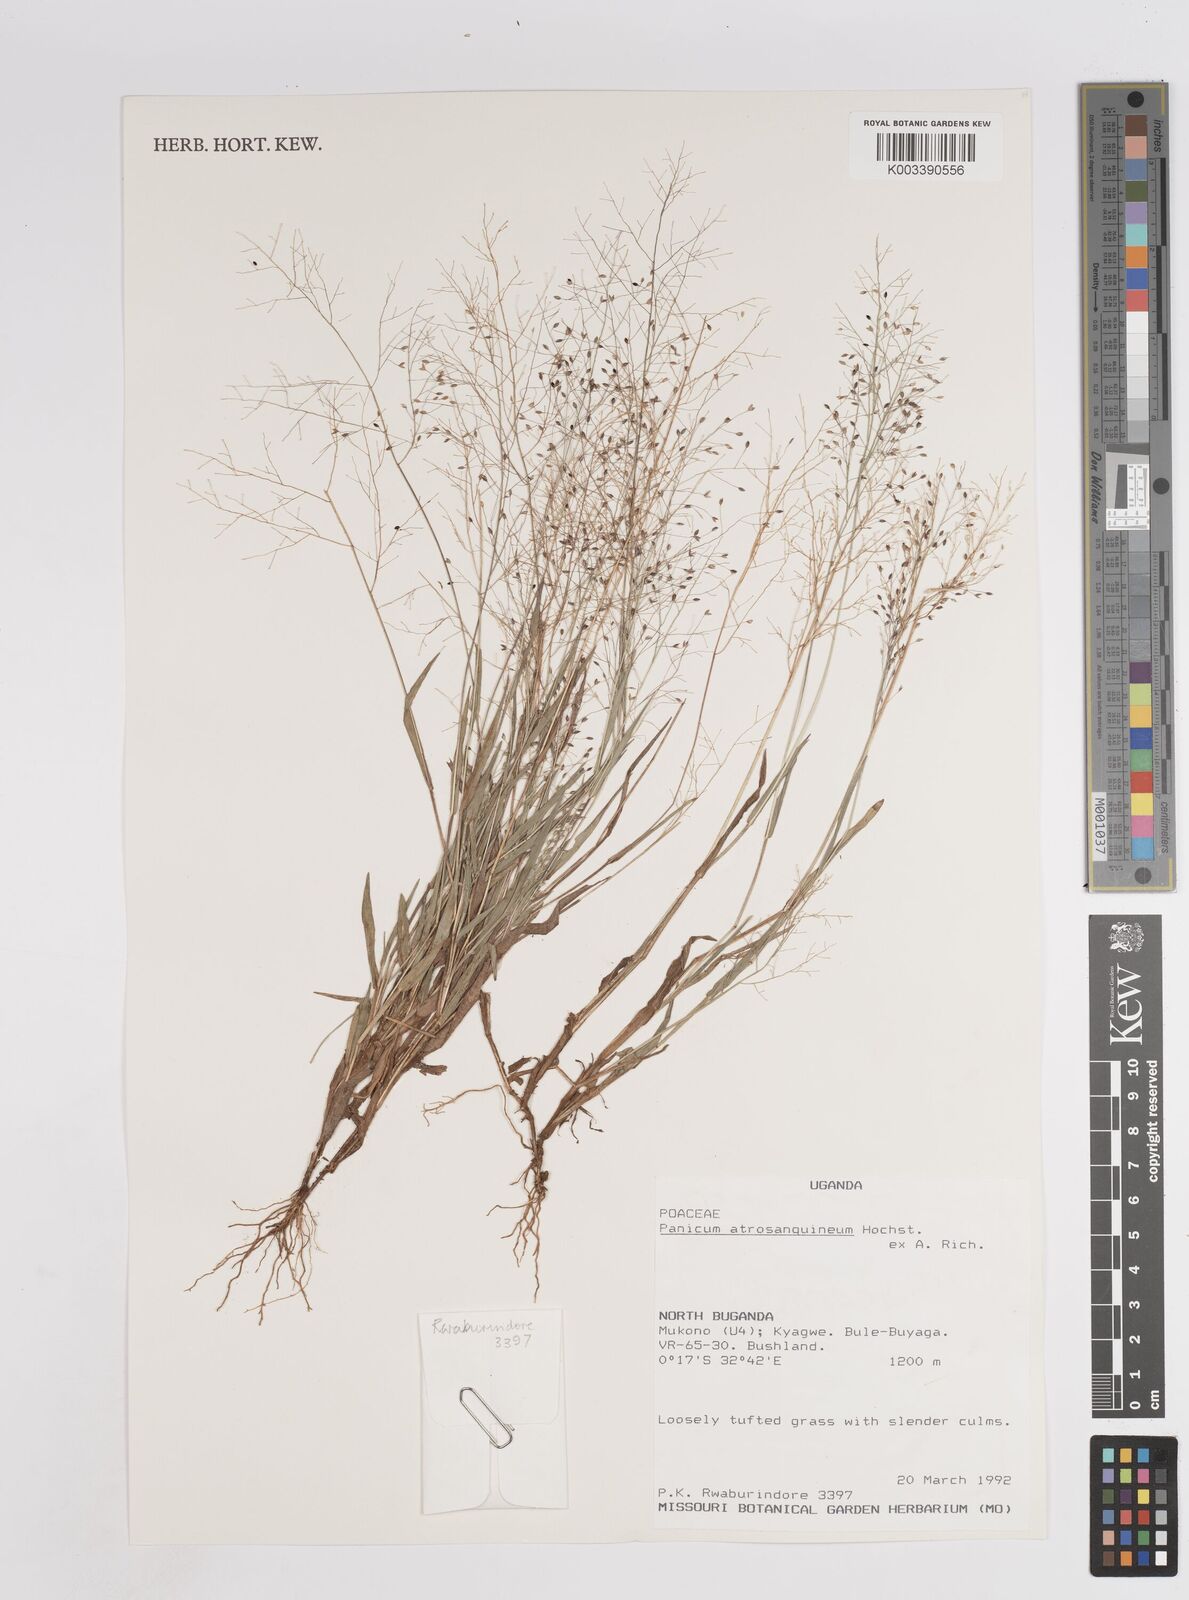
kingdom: Plantae
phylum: Tracheophyta
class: Liliopsida
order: Poales
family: Poaceae
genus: Panicum
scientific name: Panicum atrosanguineum
